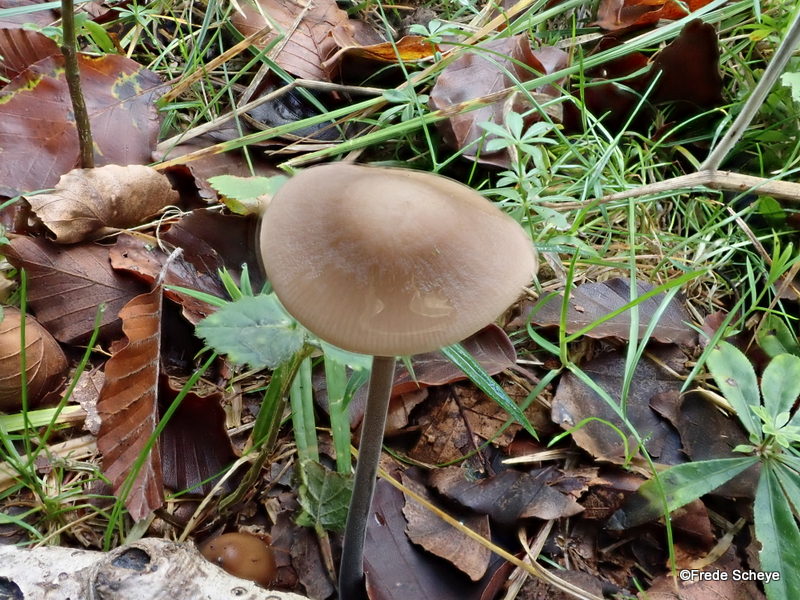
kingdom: Fungi
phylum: Basidiomycota
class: Agaricomycetes
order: Agaricales
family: Omphalotaceae
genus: Mycetinis
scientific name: Mycetinis alliaceus
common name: stor løghat
